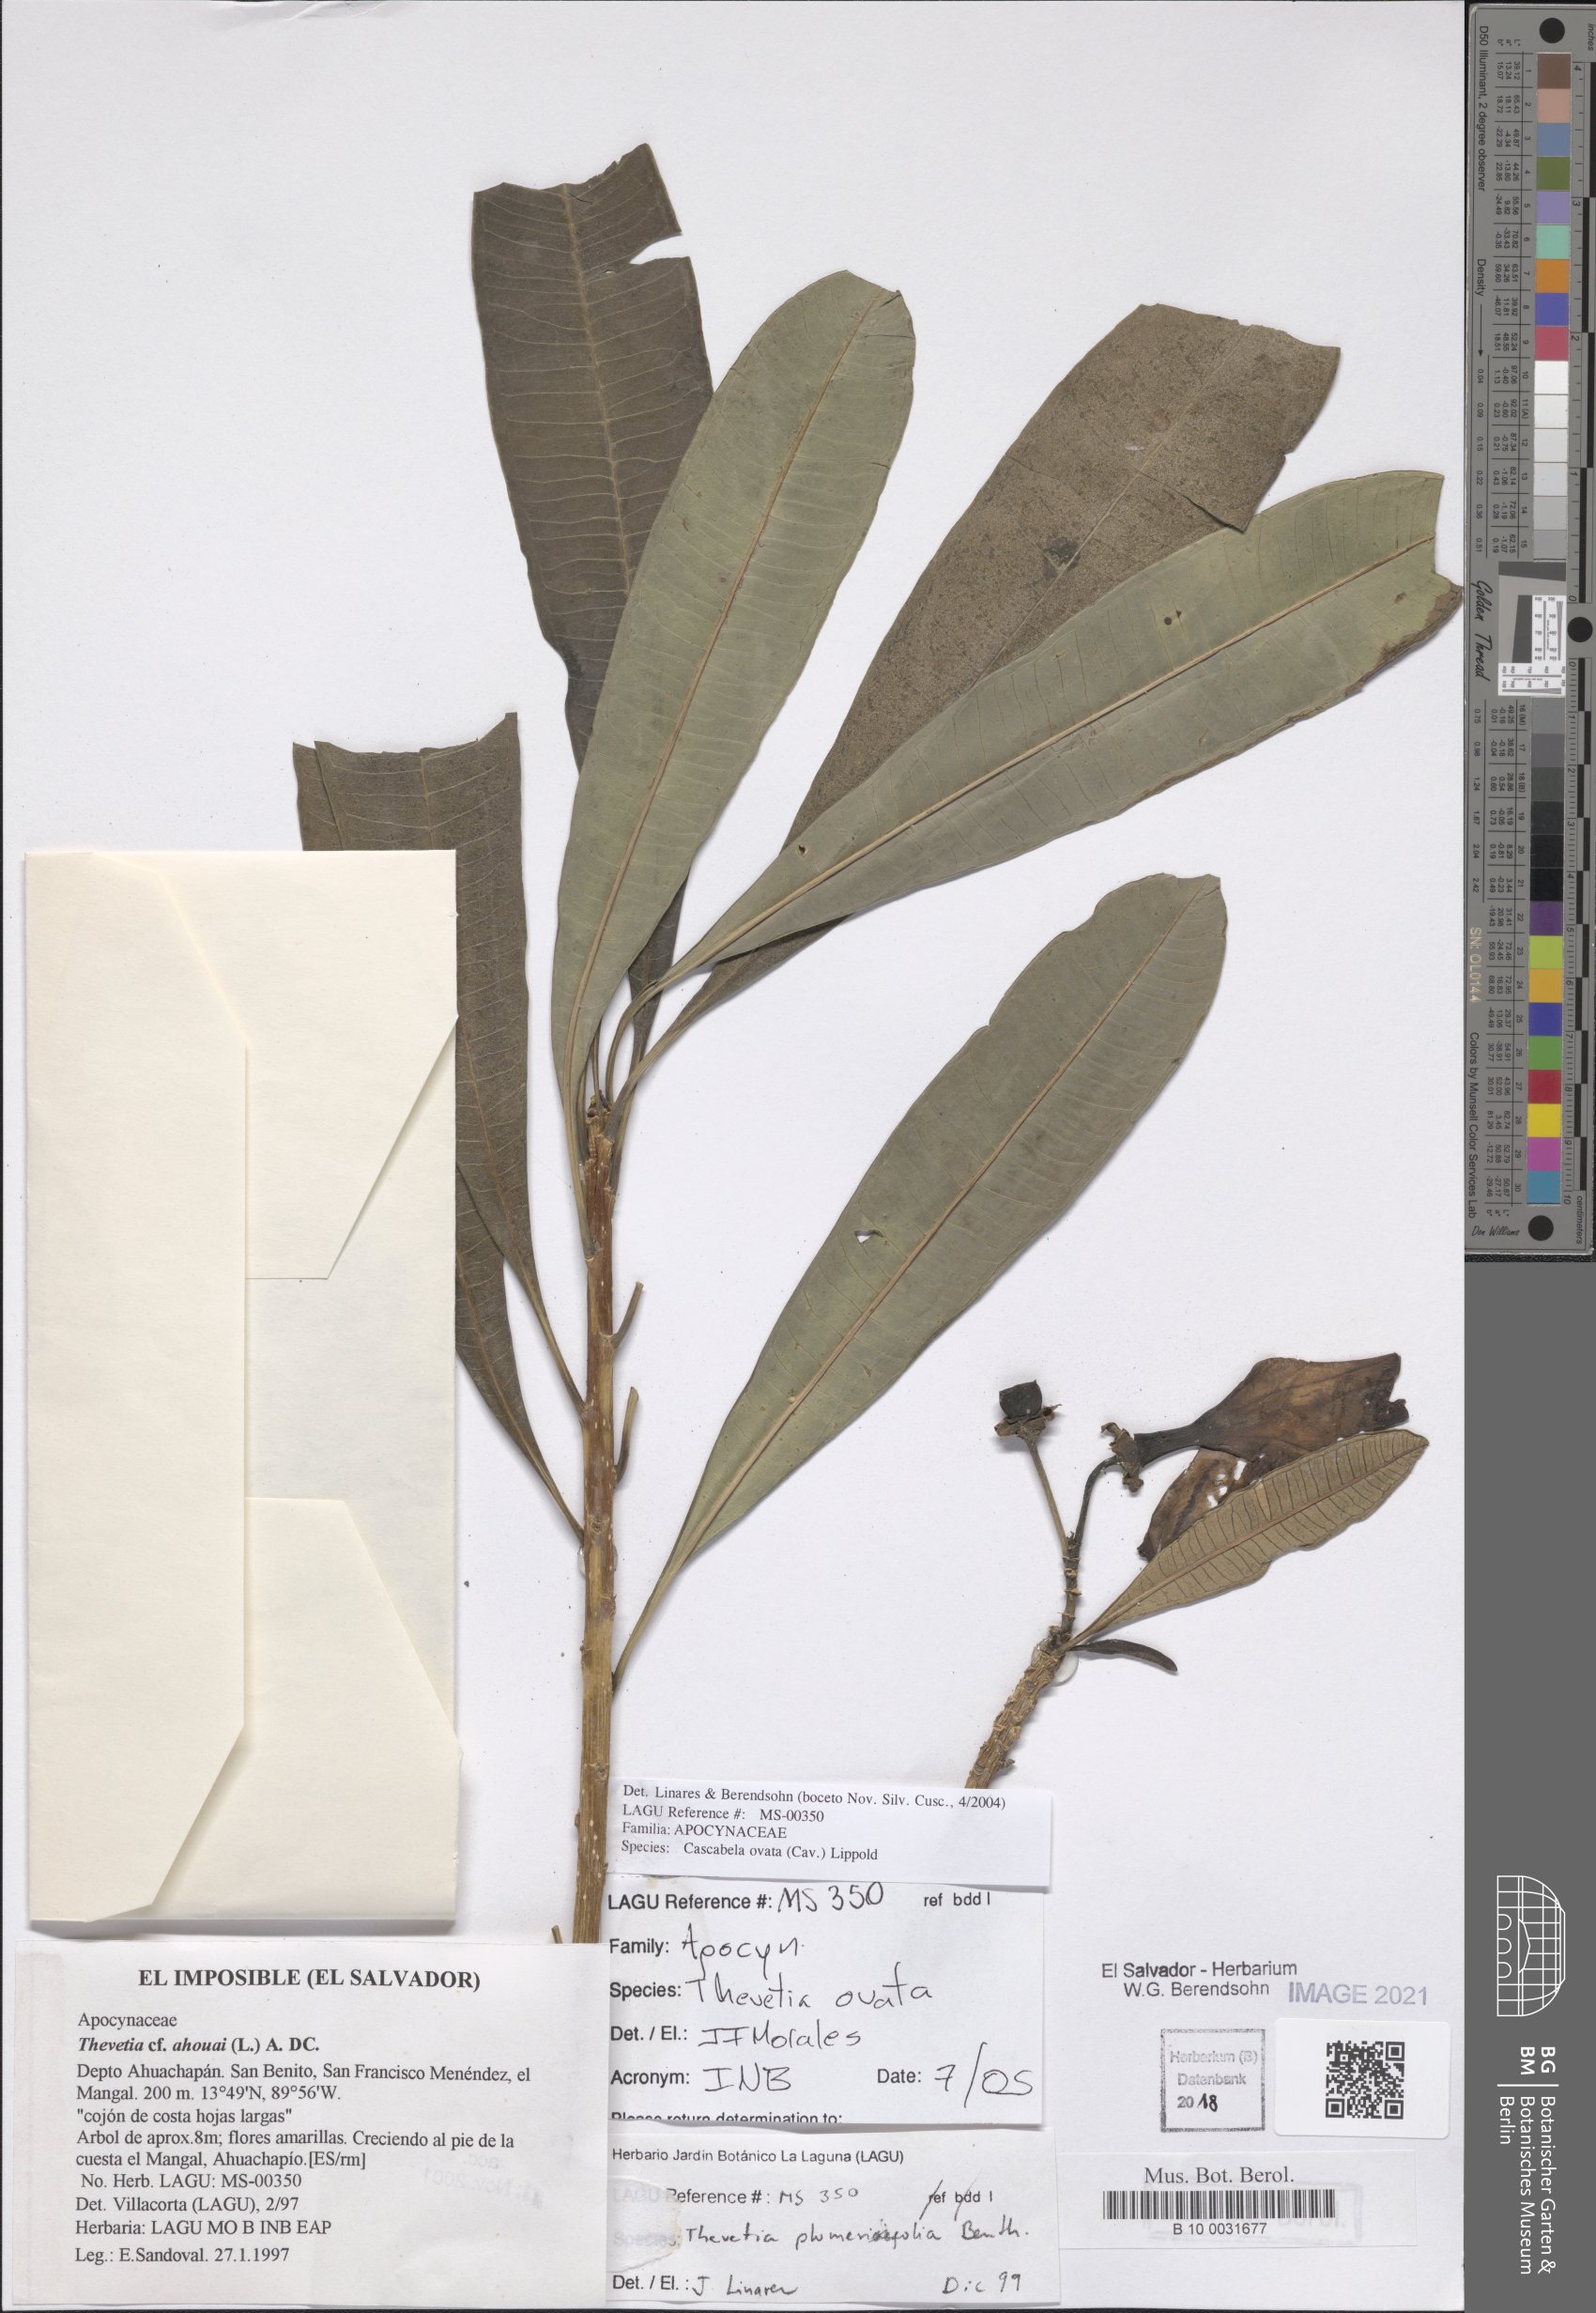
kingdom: Plantae
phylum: Tracheophyta
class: Magnoliopsida
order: Gentianales
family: Apocynaceae
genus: Cascabela
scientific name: Cascabela ovata
